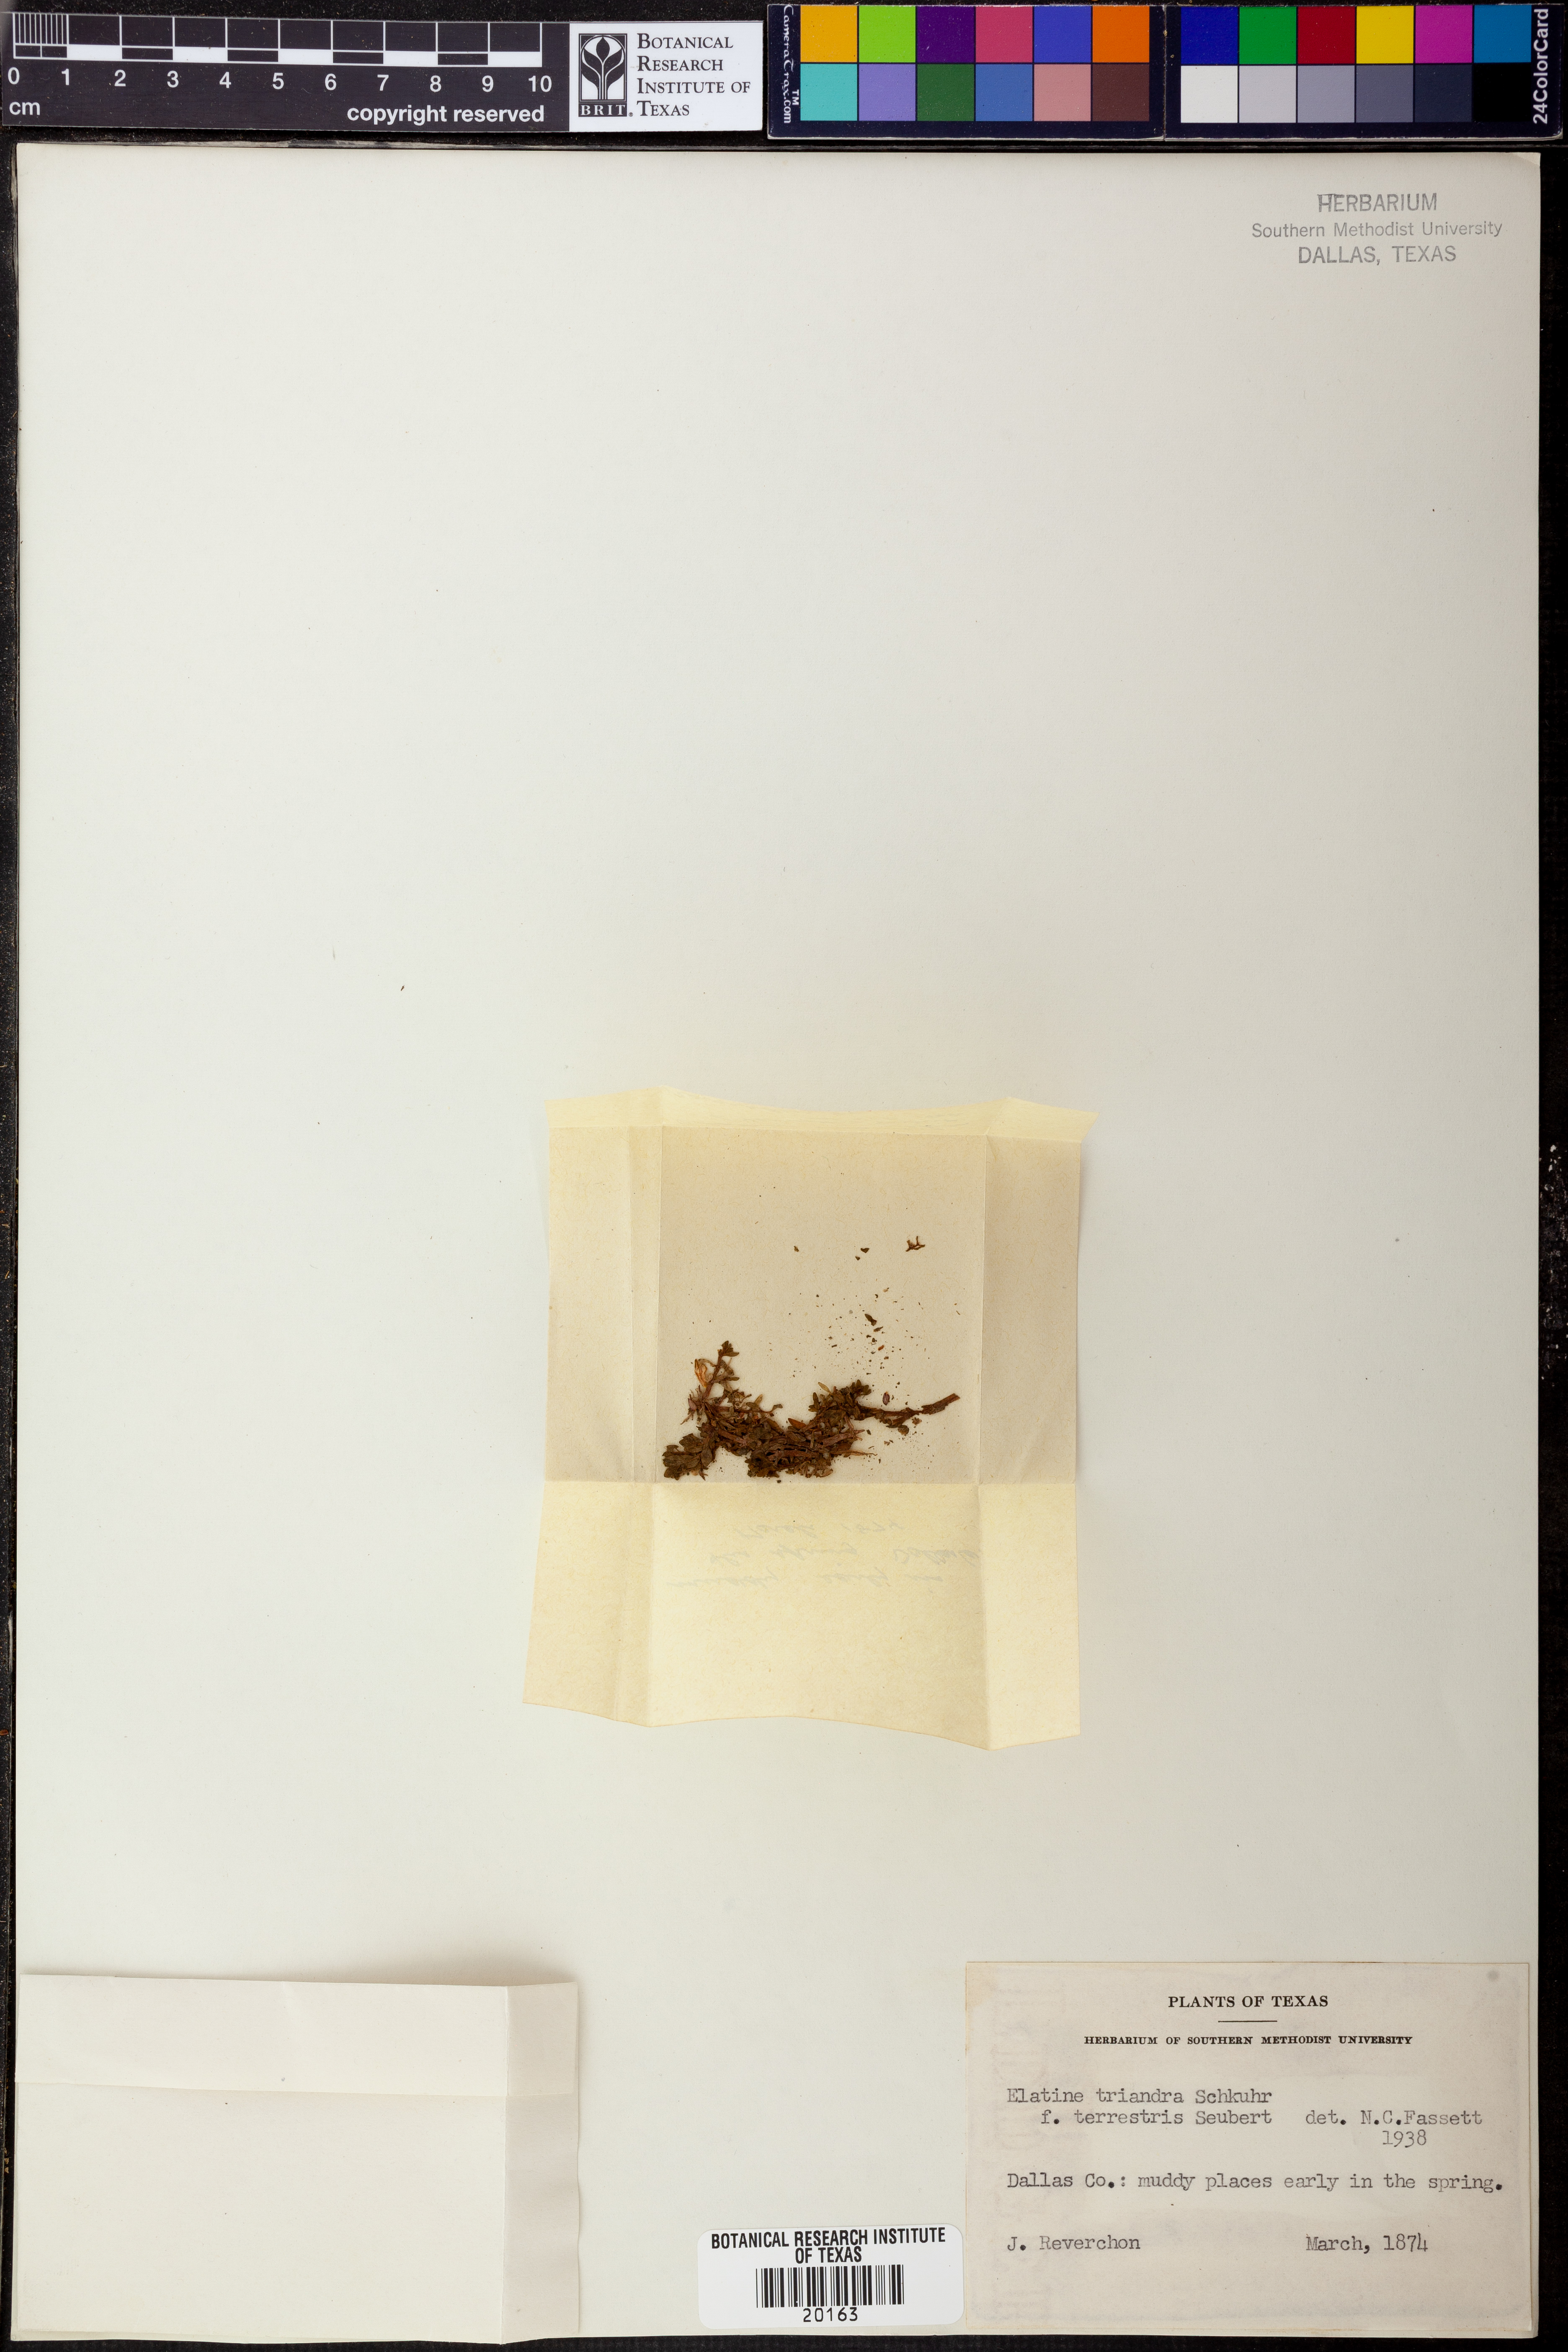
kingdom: Plantae
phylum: Tracheophyta
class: Magnoliopsida
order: Malpighiales
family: Elatinaceae
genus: Elatine
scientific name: Elatine triandra
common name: Three-stamened waterwort
